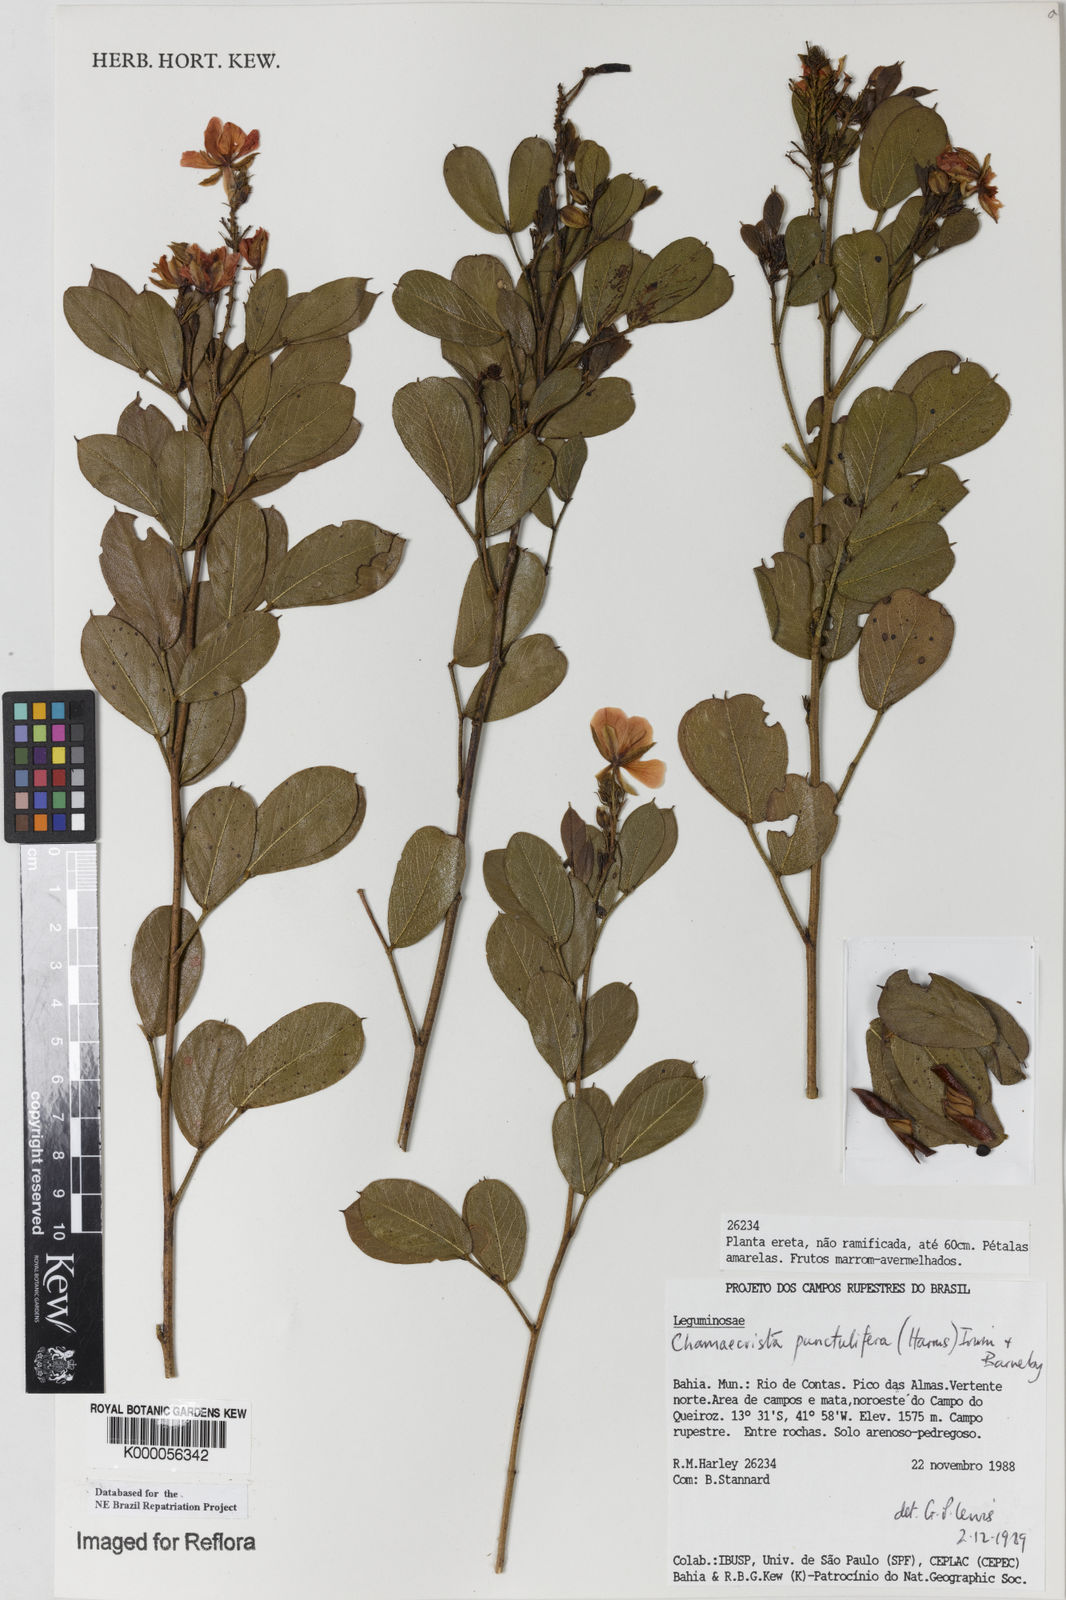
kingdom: Plantae
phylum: Tracheophyta
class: Magnoliopsida
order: Fabales
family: Fabaceae
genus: Chamaecrista
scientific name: Chamaecrista punctulifera
